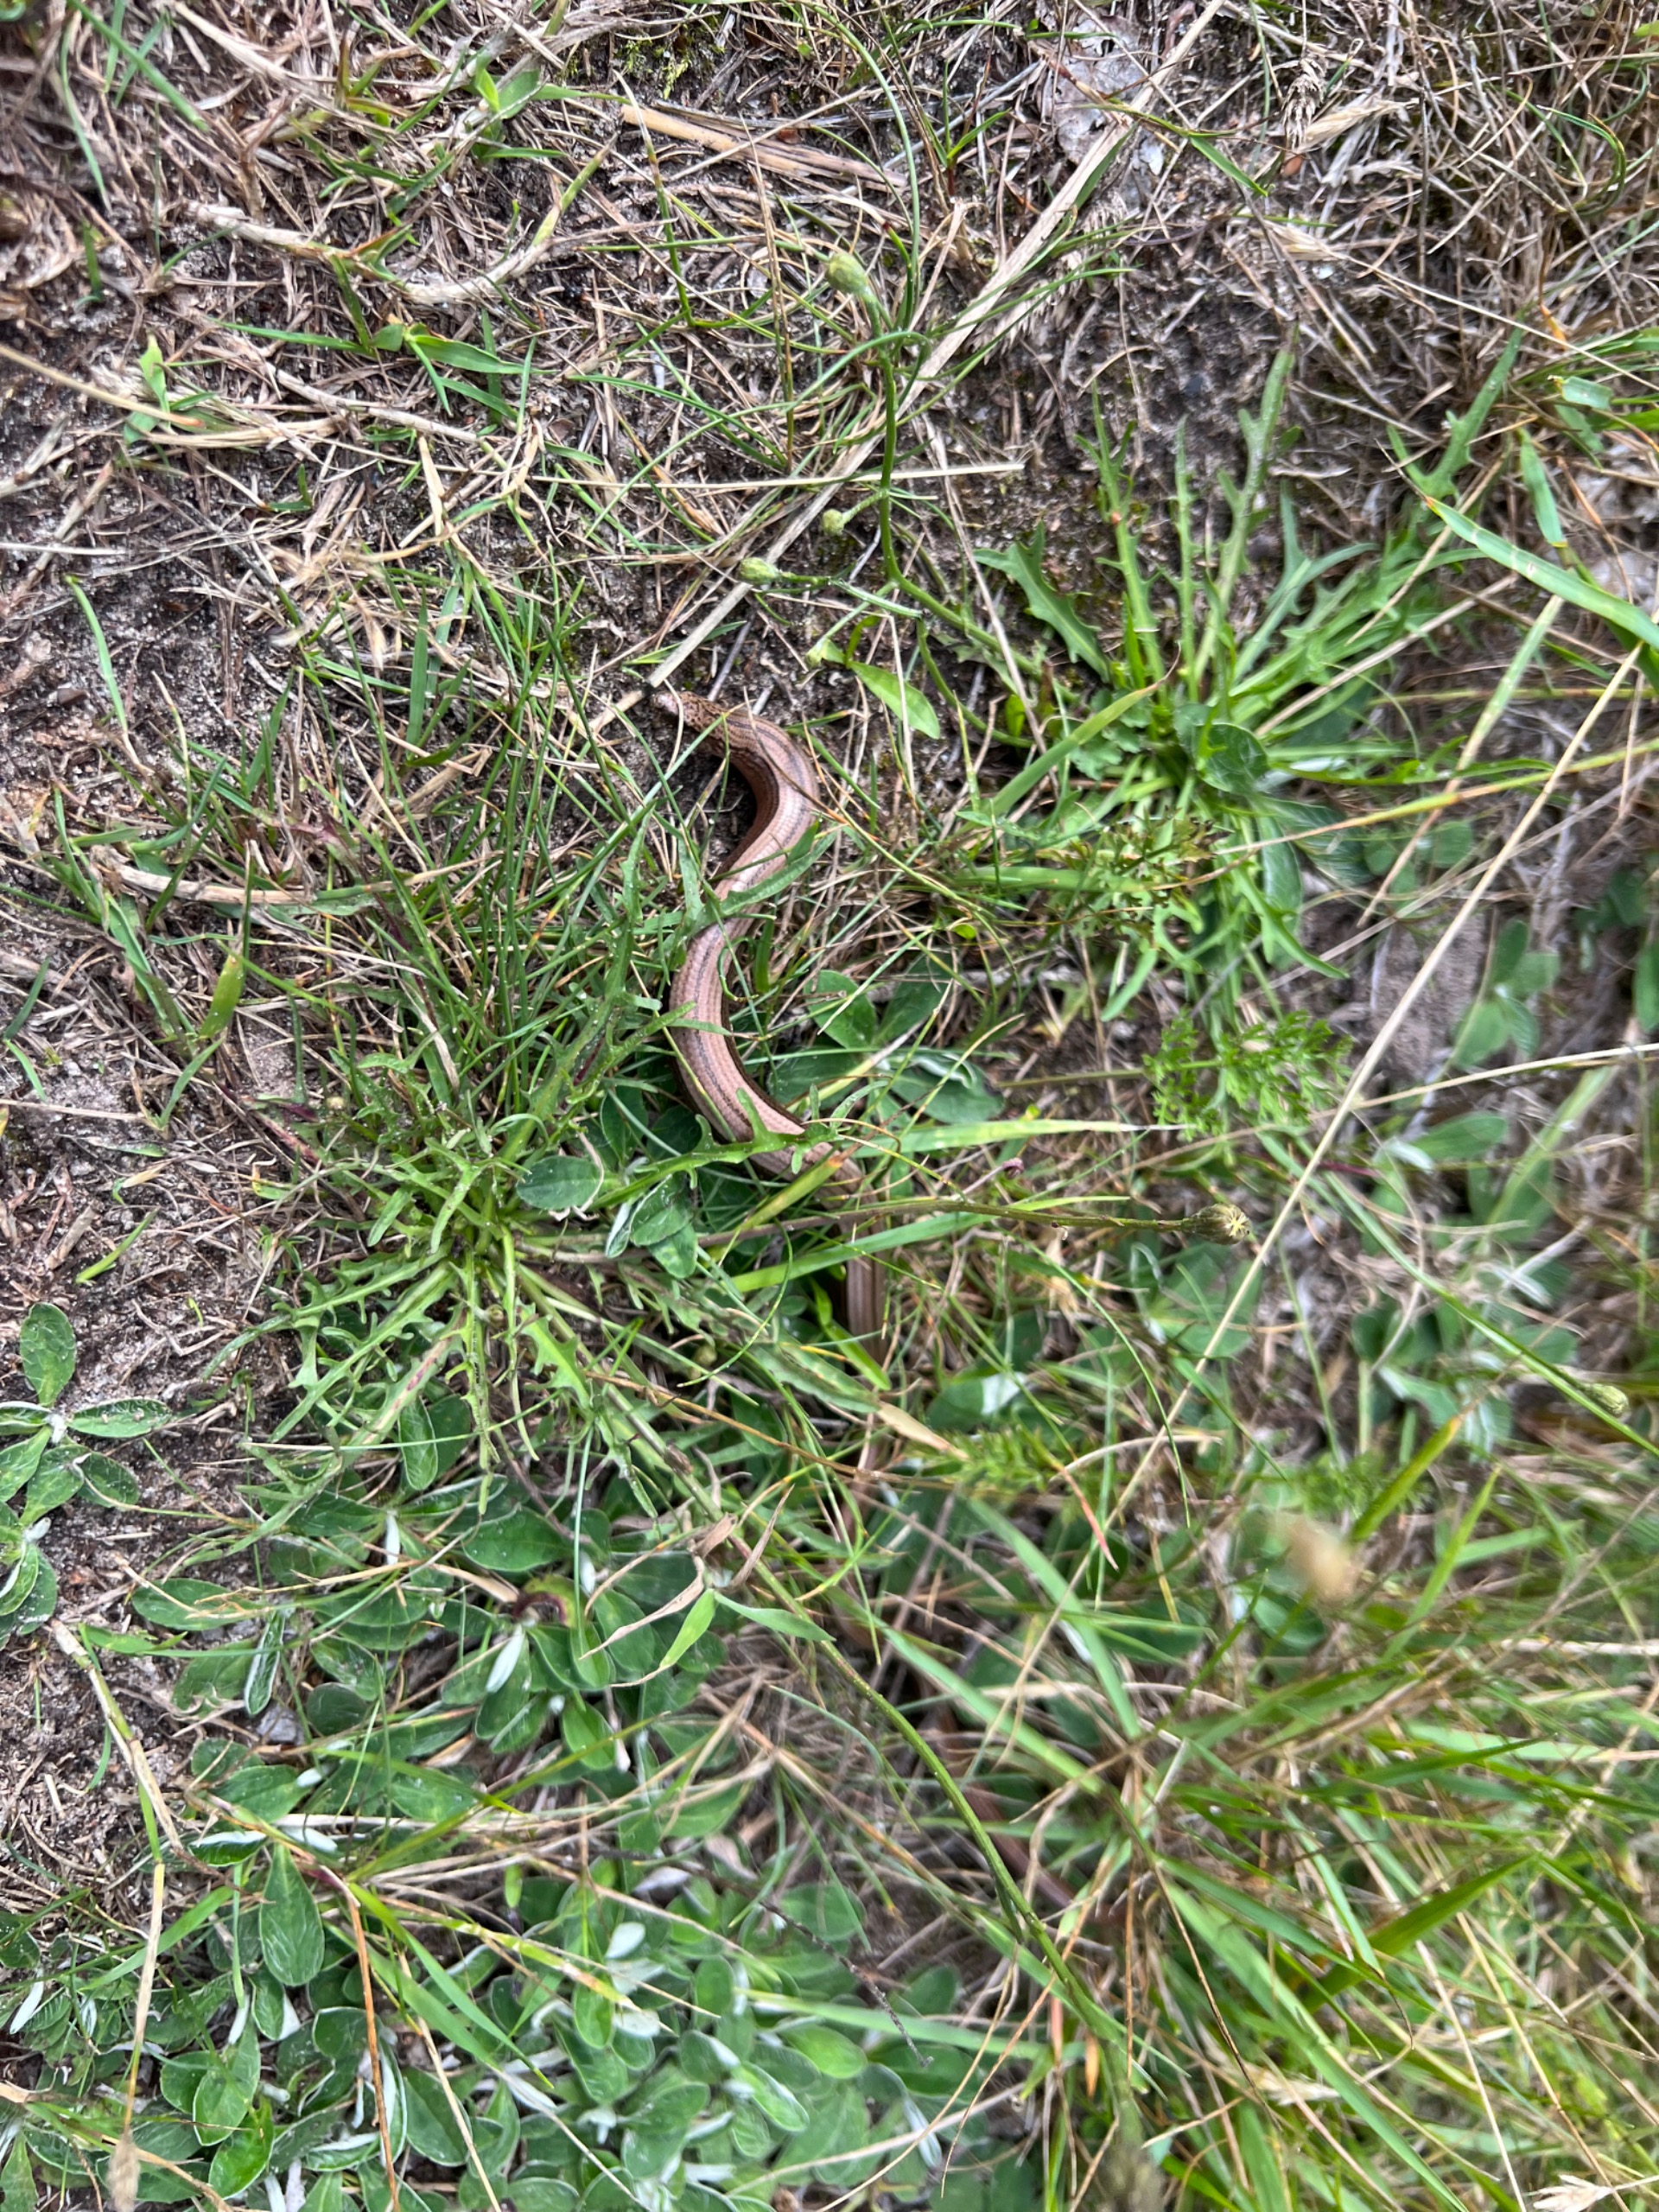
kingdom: Animalia
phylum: Chordata
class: Squamata
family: Anguidae
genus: Anguis
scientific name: Anguis fragilis
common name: Stålorm
